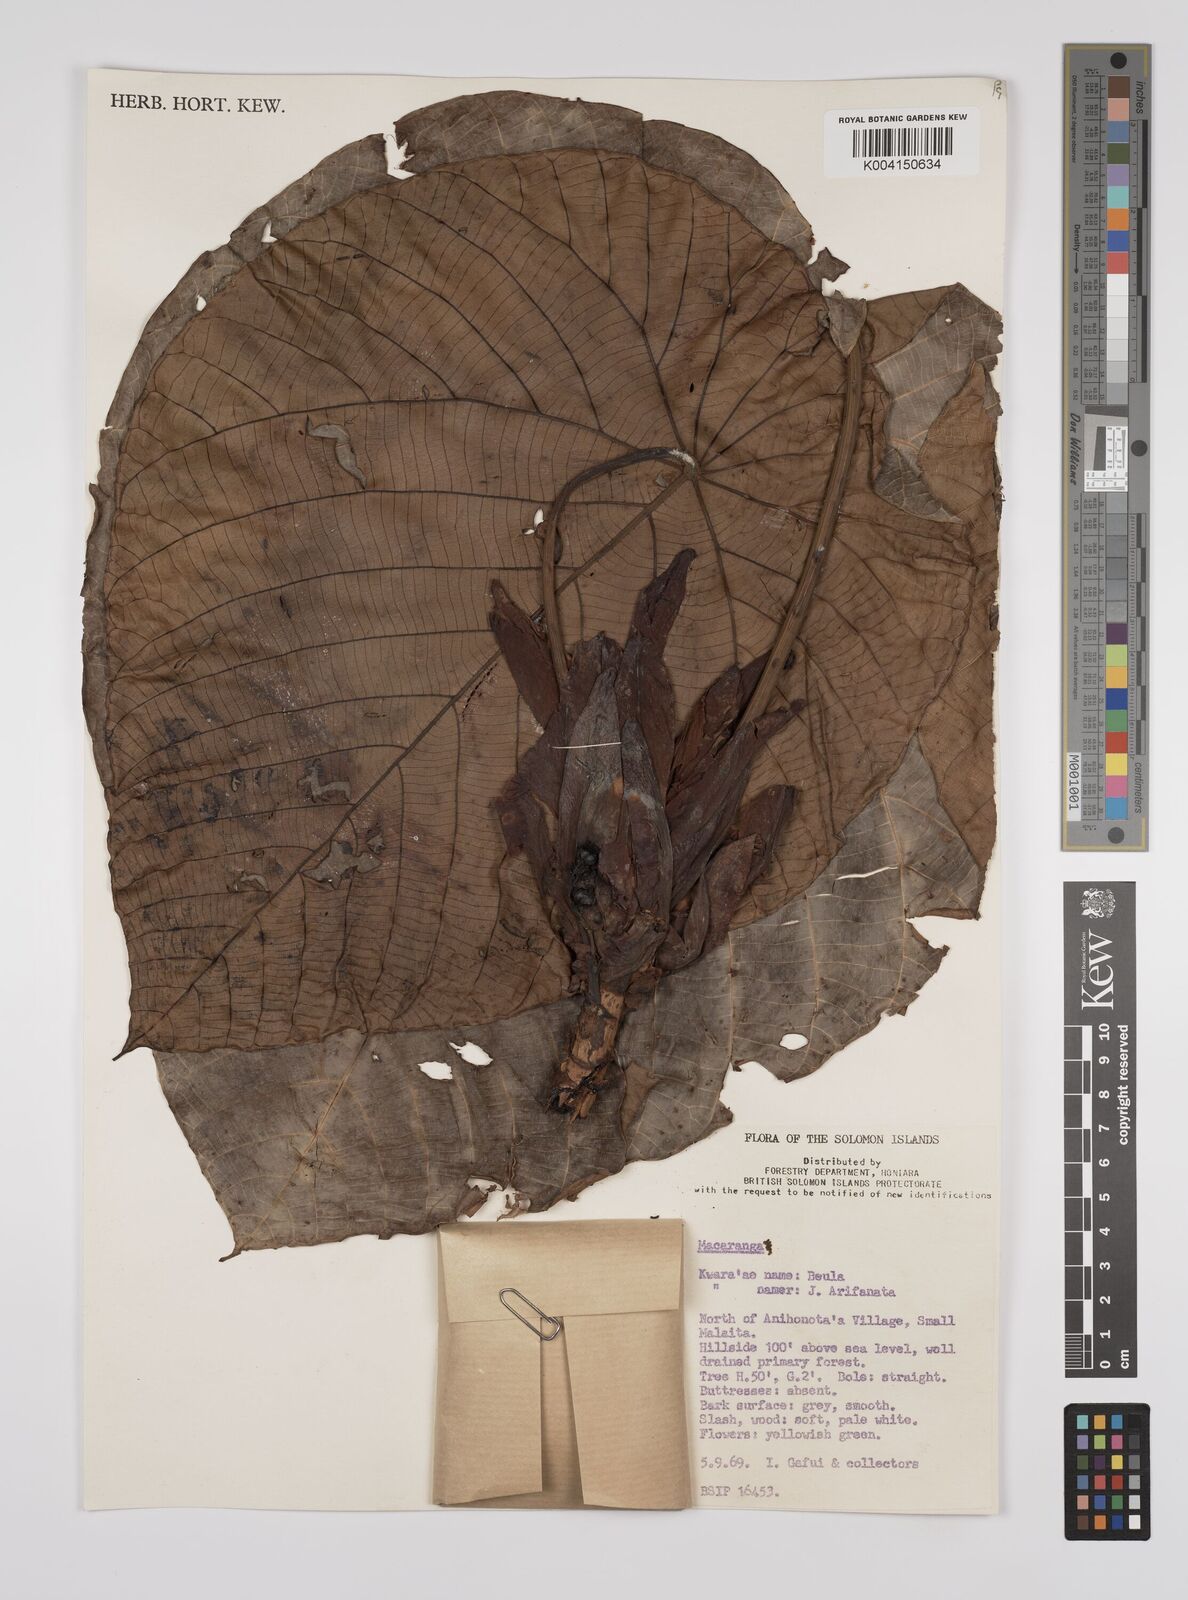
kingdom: Plantae
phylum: Tracheophyta
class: Magnoliopsida
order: Malpighiales
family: Euphorbiaceae
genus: Macaranga
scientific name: Macaranga whitmorei
